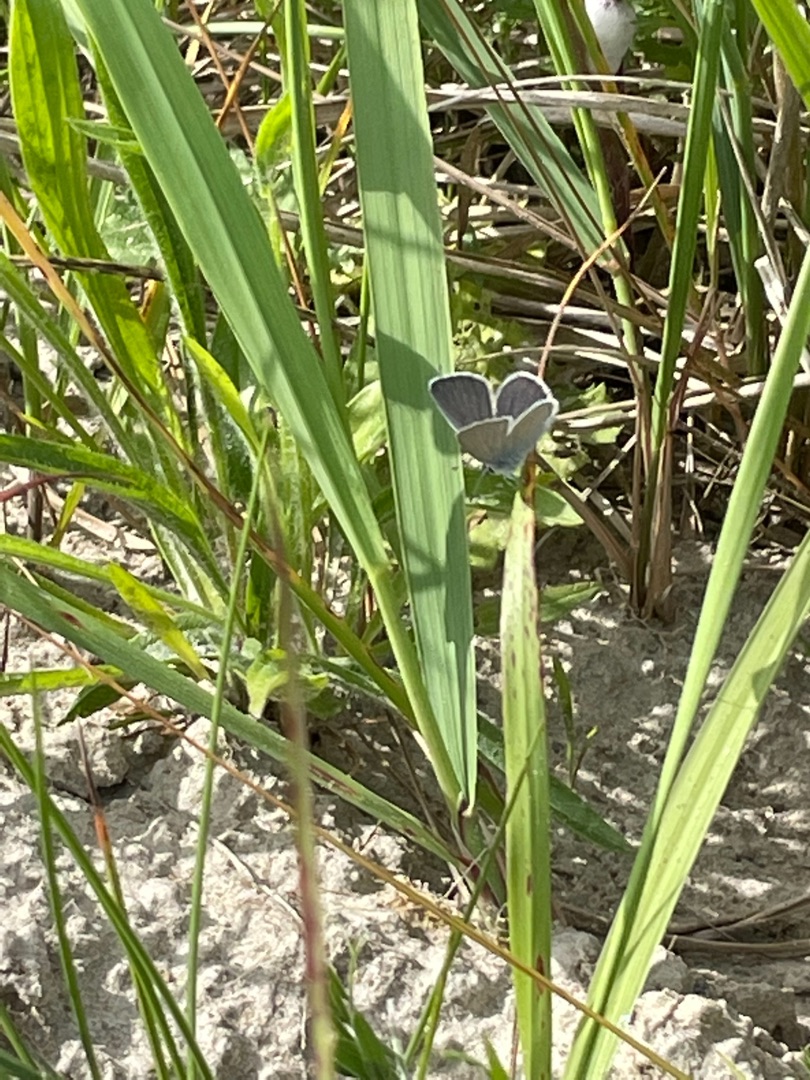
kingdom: Animalia
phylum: Arthropoda
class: Insecta
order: Lepidoptera
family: Lycaenidae
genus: Cupido
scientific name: Cupido minimus
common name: Dværgblåfugl
